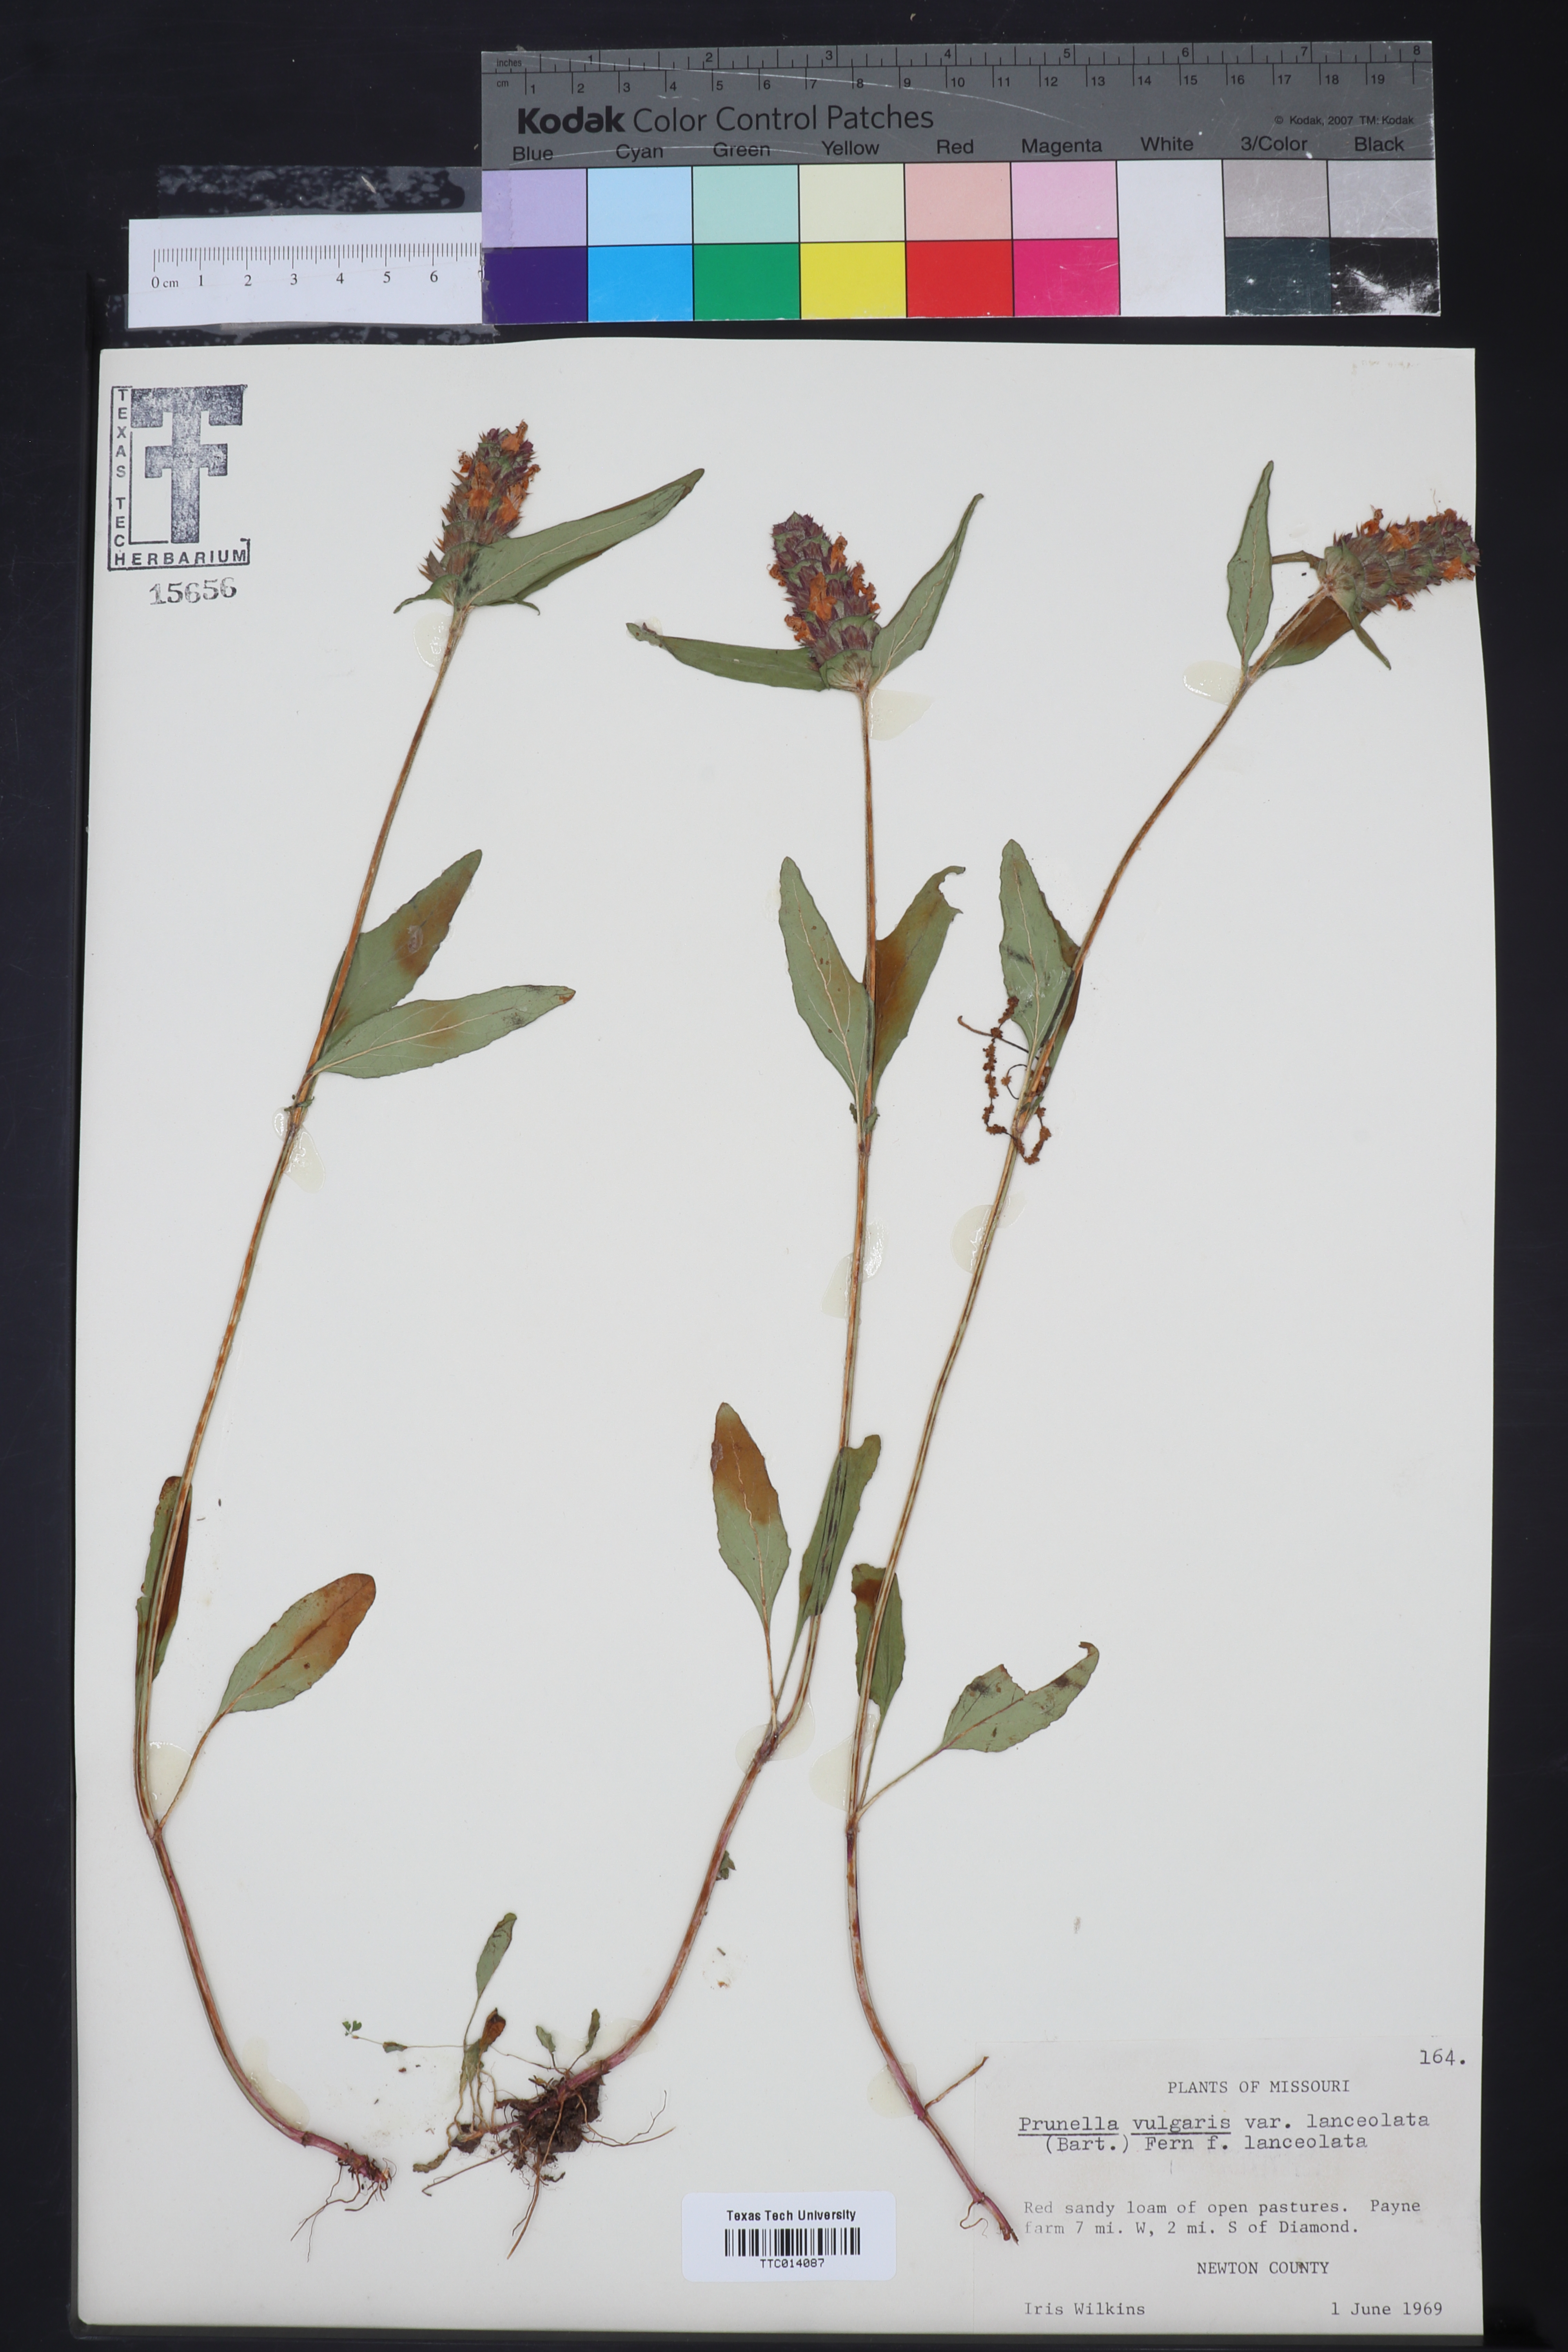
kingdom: Plantae
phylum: Tracheophyta
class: Magnoliopsida
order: Lamiales
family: Lamiaceae
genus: Prunella
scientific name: Prunella vulgaris
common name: Heal-all
